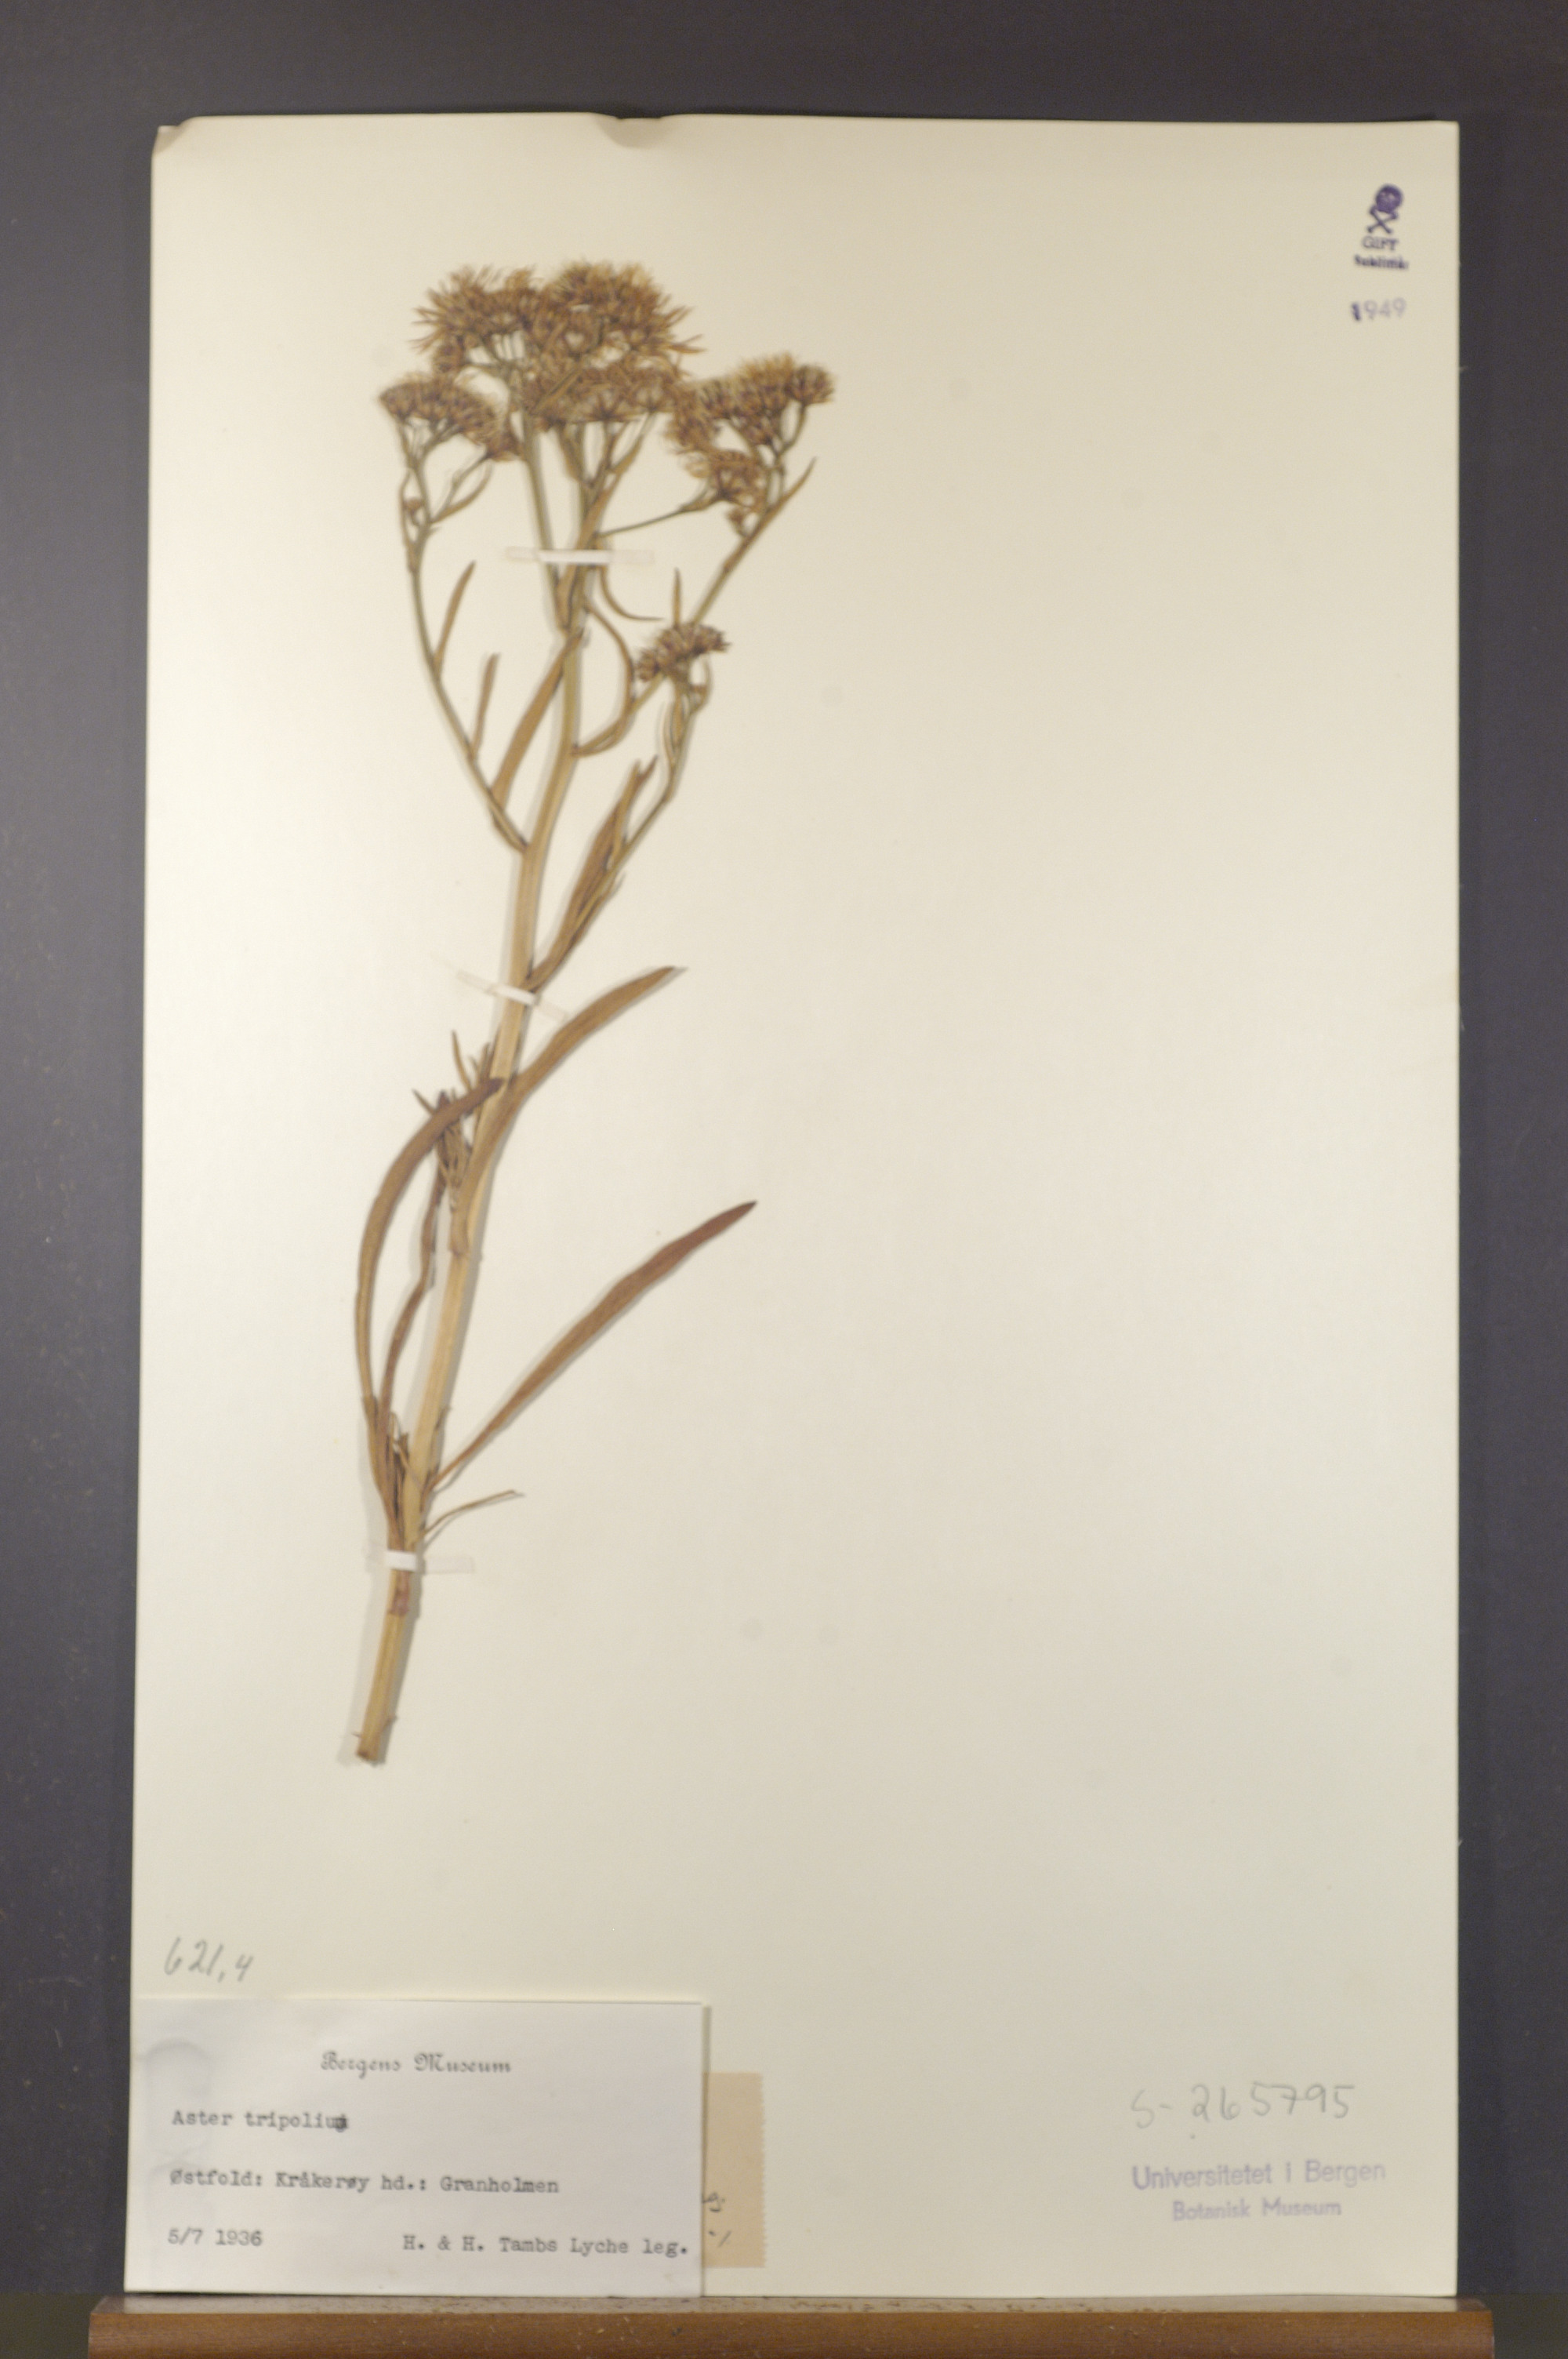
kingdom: Plantae
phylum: Tracheophyta
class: Magnoliopsida
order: Asterales
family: Asteraceae
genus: Tripolium
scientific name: Tripolium pannonicum
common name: Sea aster
